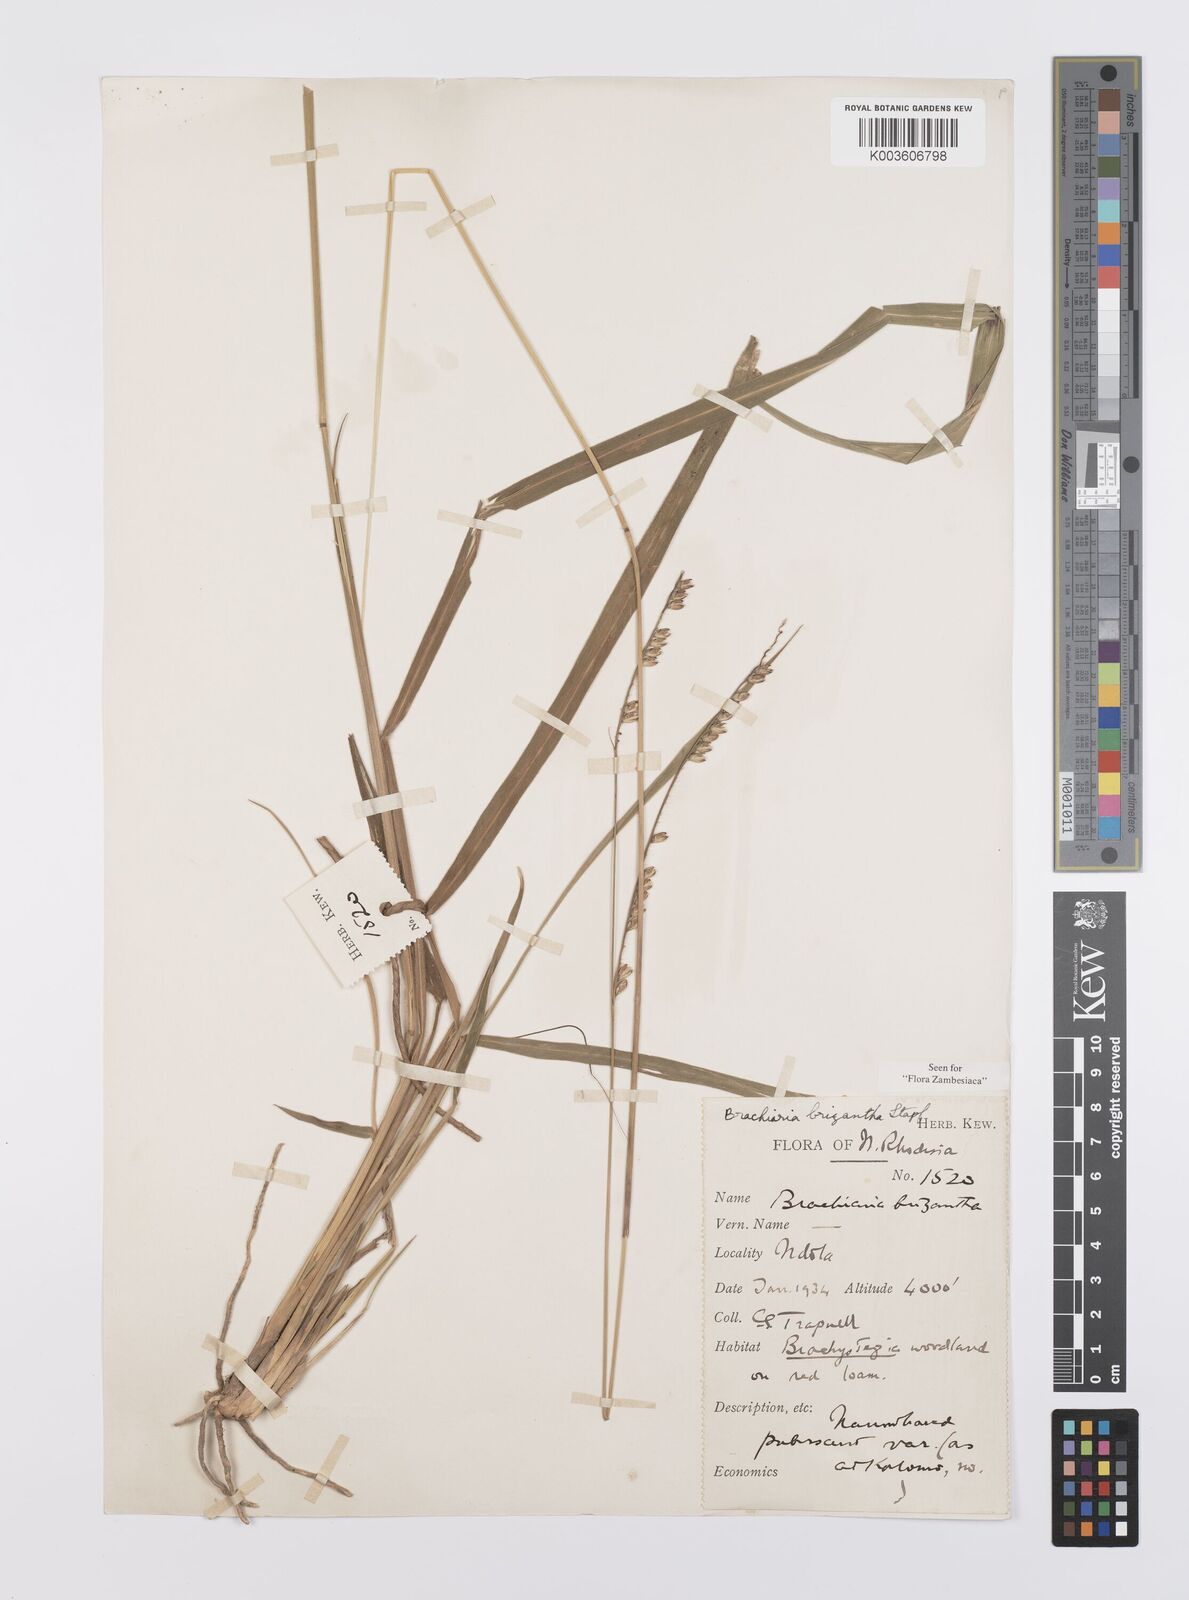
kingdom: Plantae
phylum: Tracheophyta
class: Liliopsida
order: Poales
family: Poaceae
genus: Urochloa
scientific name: Urochloa brizantha
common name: Palisade signalgrass
